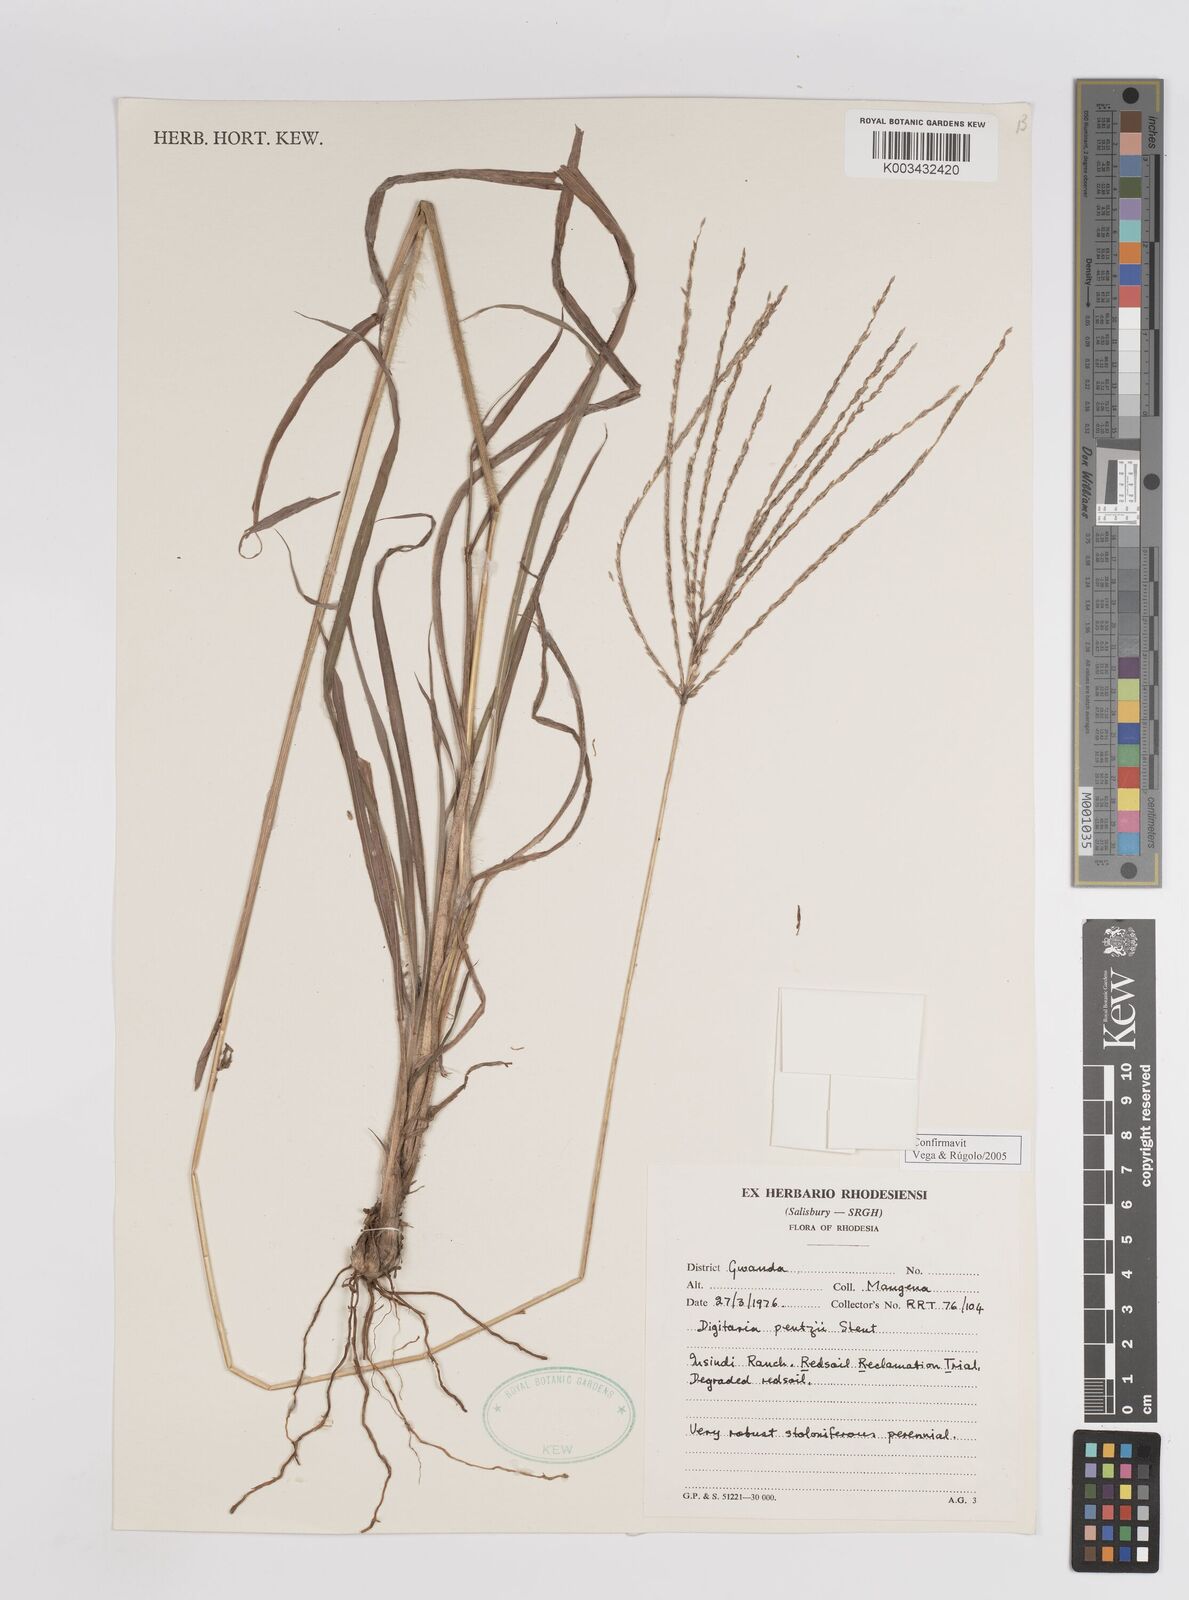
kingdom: Plantae
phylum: Tracheophyta
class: Liliopsida
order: Poales
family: Poaceae
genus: Digitaria
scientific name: Digitaria eriantha
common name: Digitgrass
